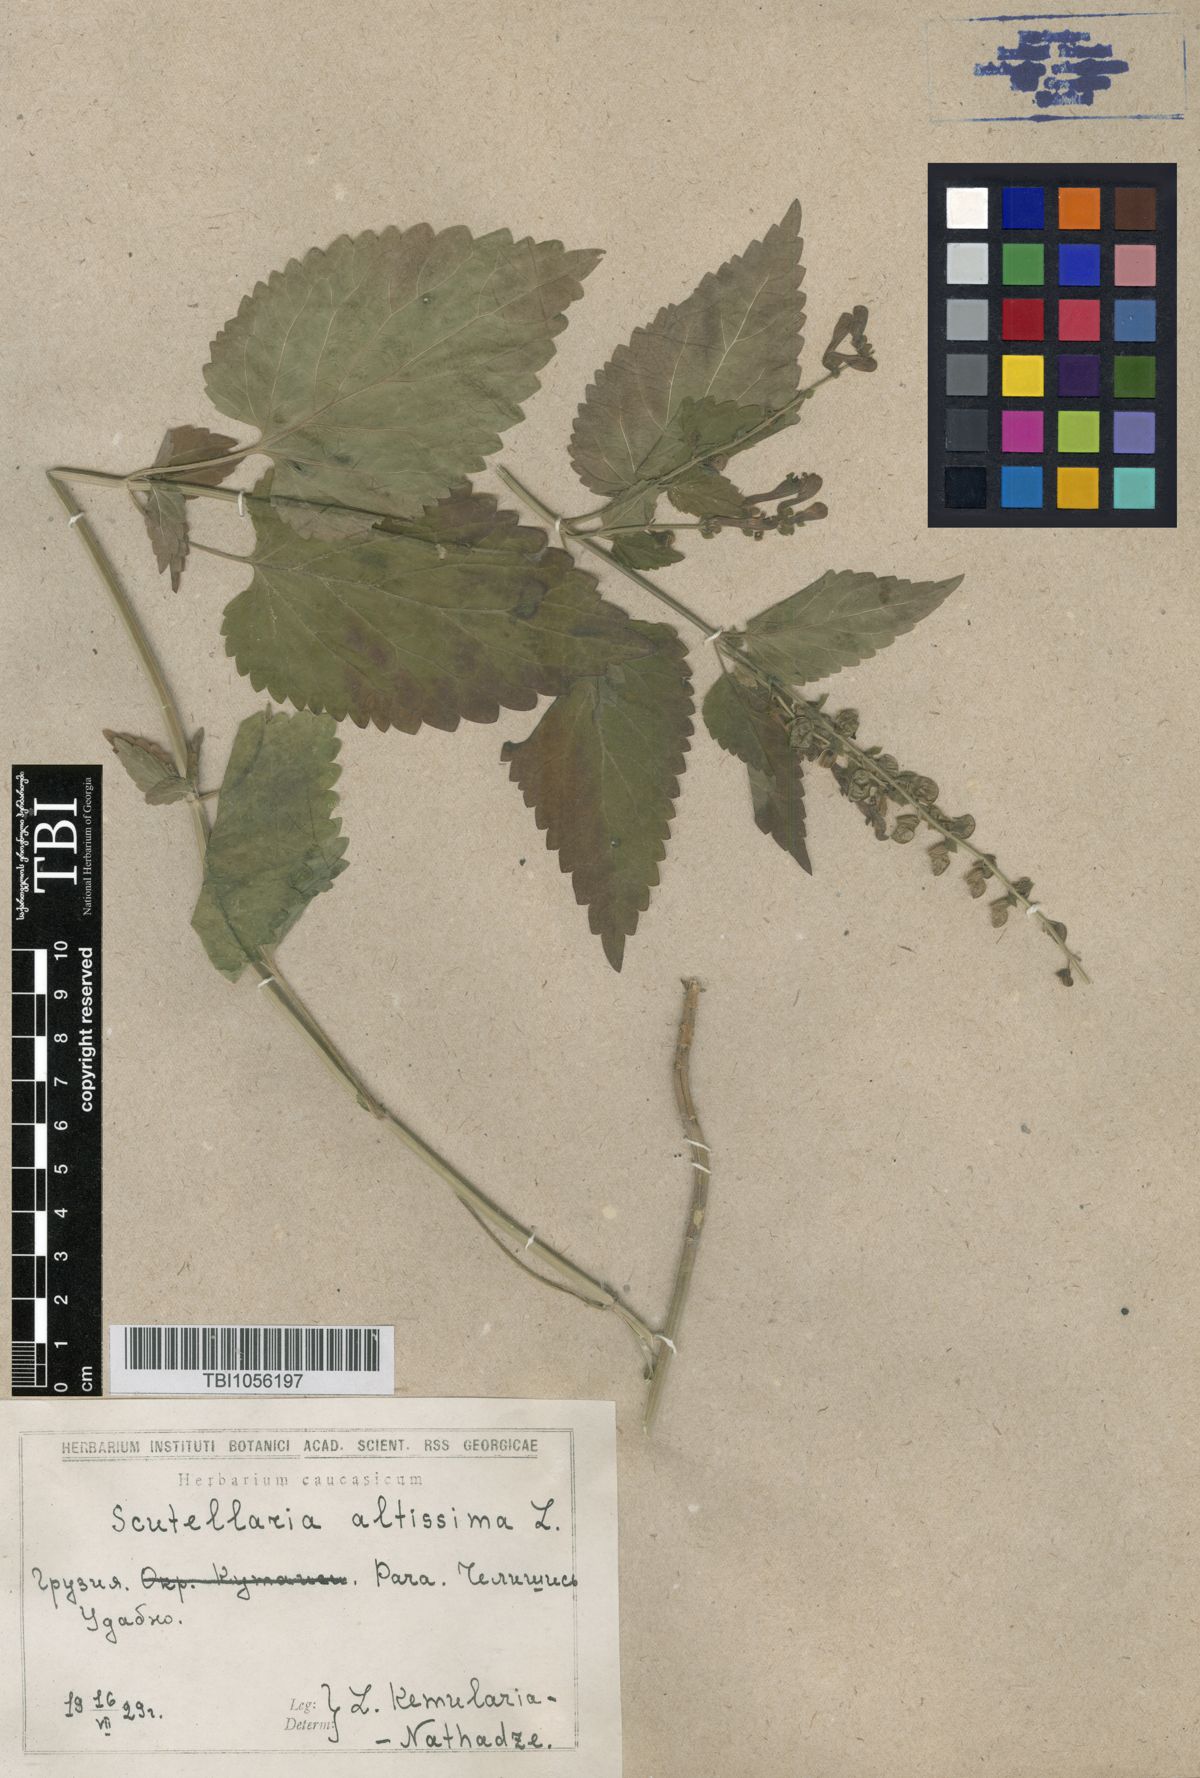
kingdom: Plantae
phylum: Tracheophyta
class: Magnoliopsida
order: Lamiales
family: Lamiaceae
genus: Scutellaria
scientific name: Scutellaria altissima
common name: Somerset skullcap
